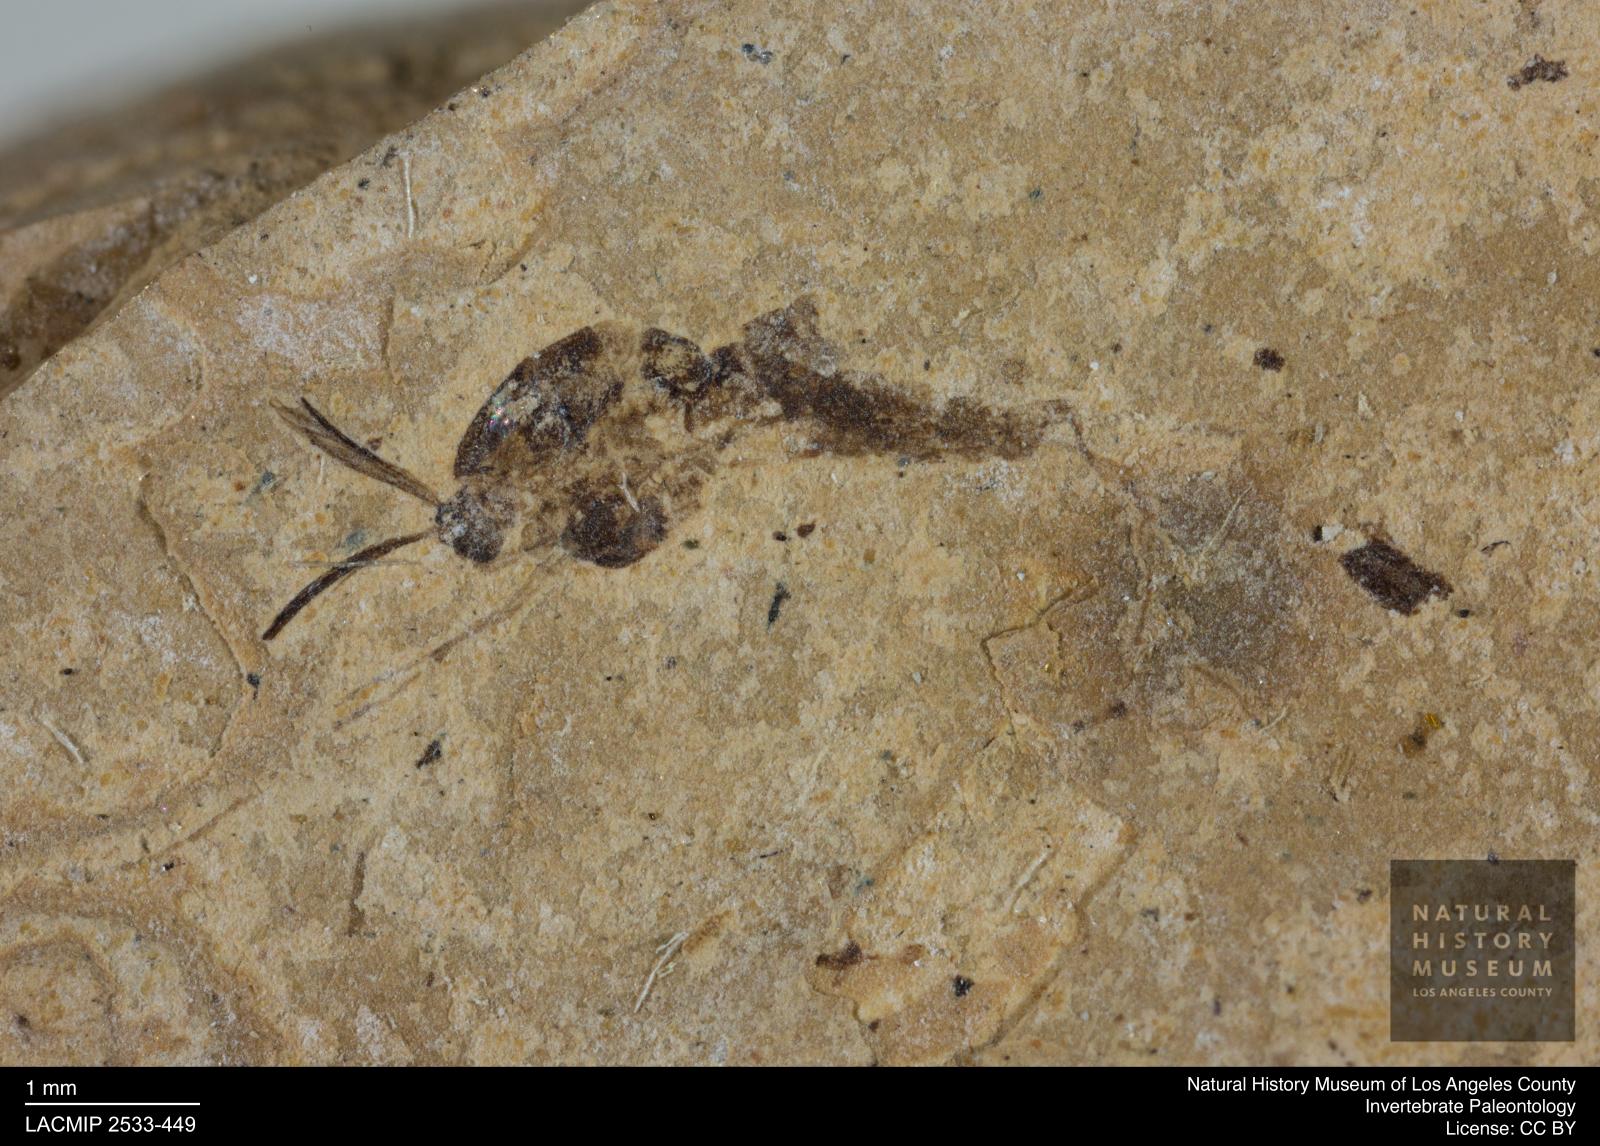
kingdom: Animalia
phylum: Arthropoda
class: Insecta
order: Diptera
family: Chironomidae
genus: Tanypus
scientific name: Tanypus thienemanni
